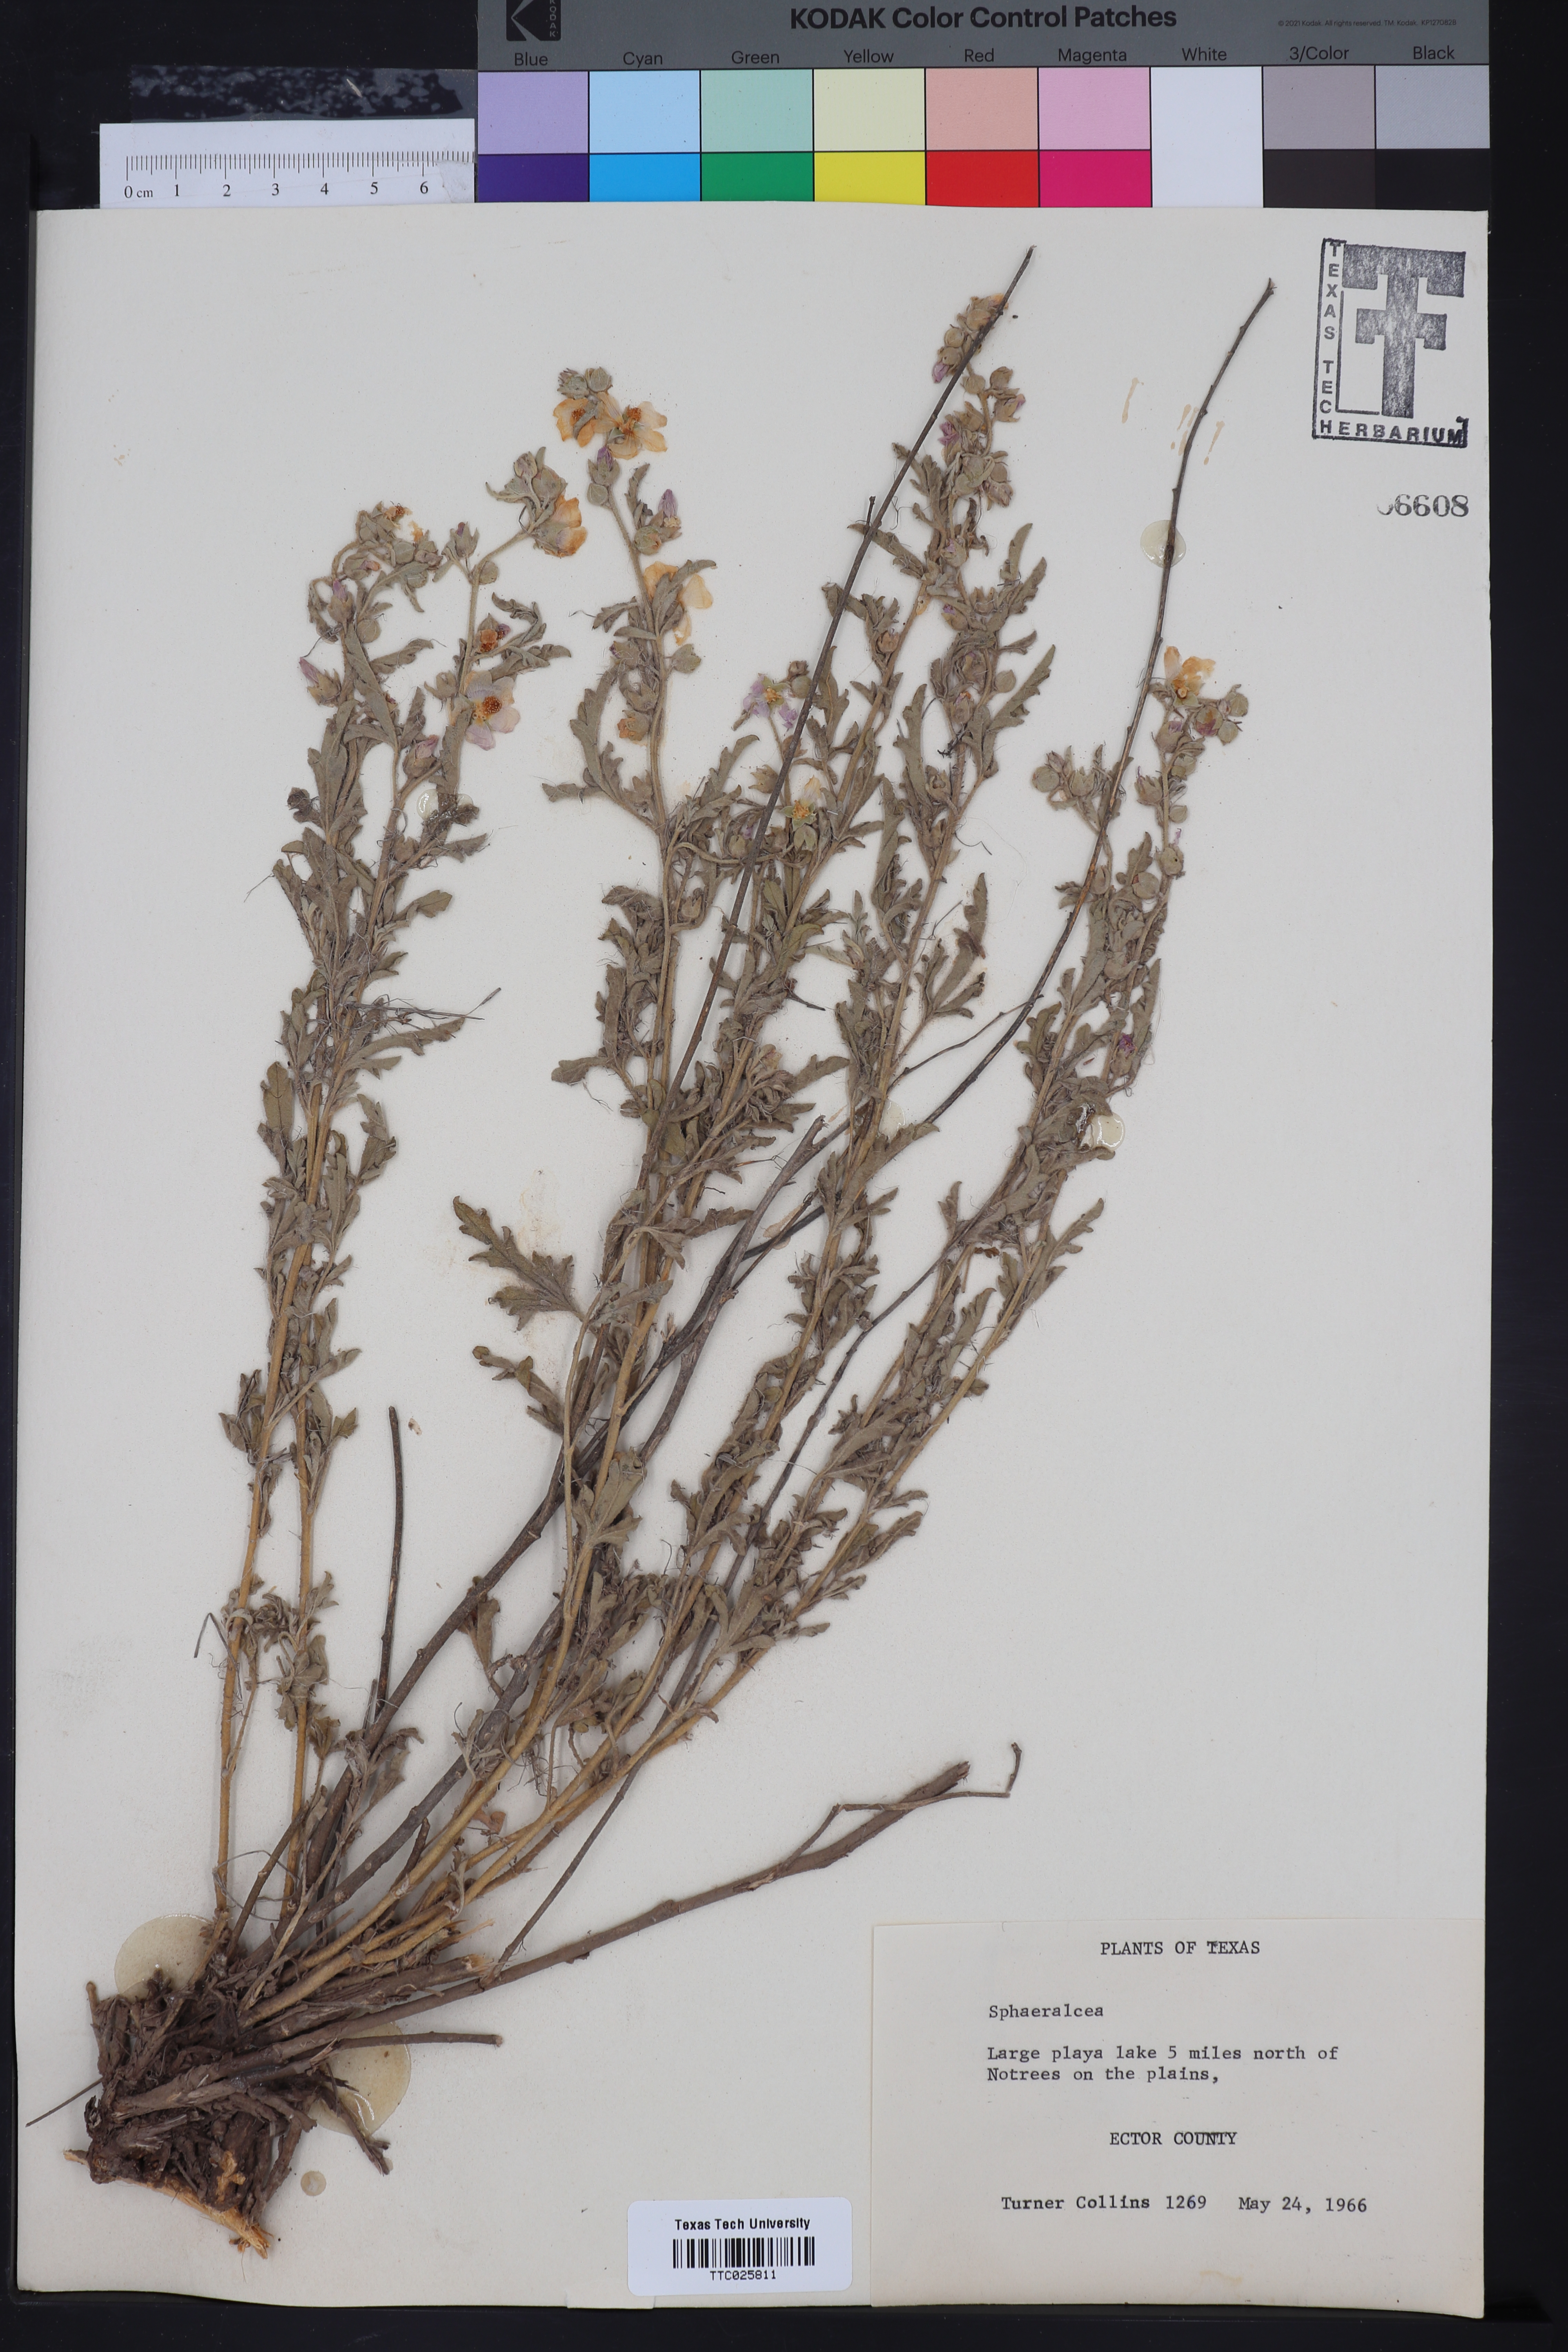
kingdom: Plantae
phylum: Tracheophyta
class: Magnoliopsida
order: Malvales
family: Malvaceae
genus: Sphaeralcea
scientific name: Sphaeralcea
